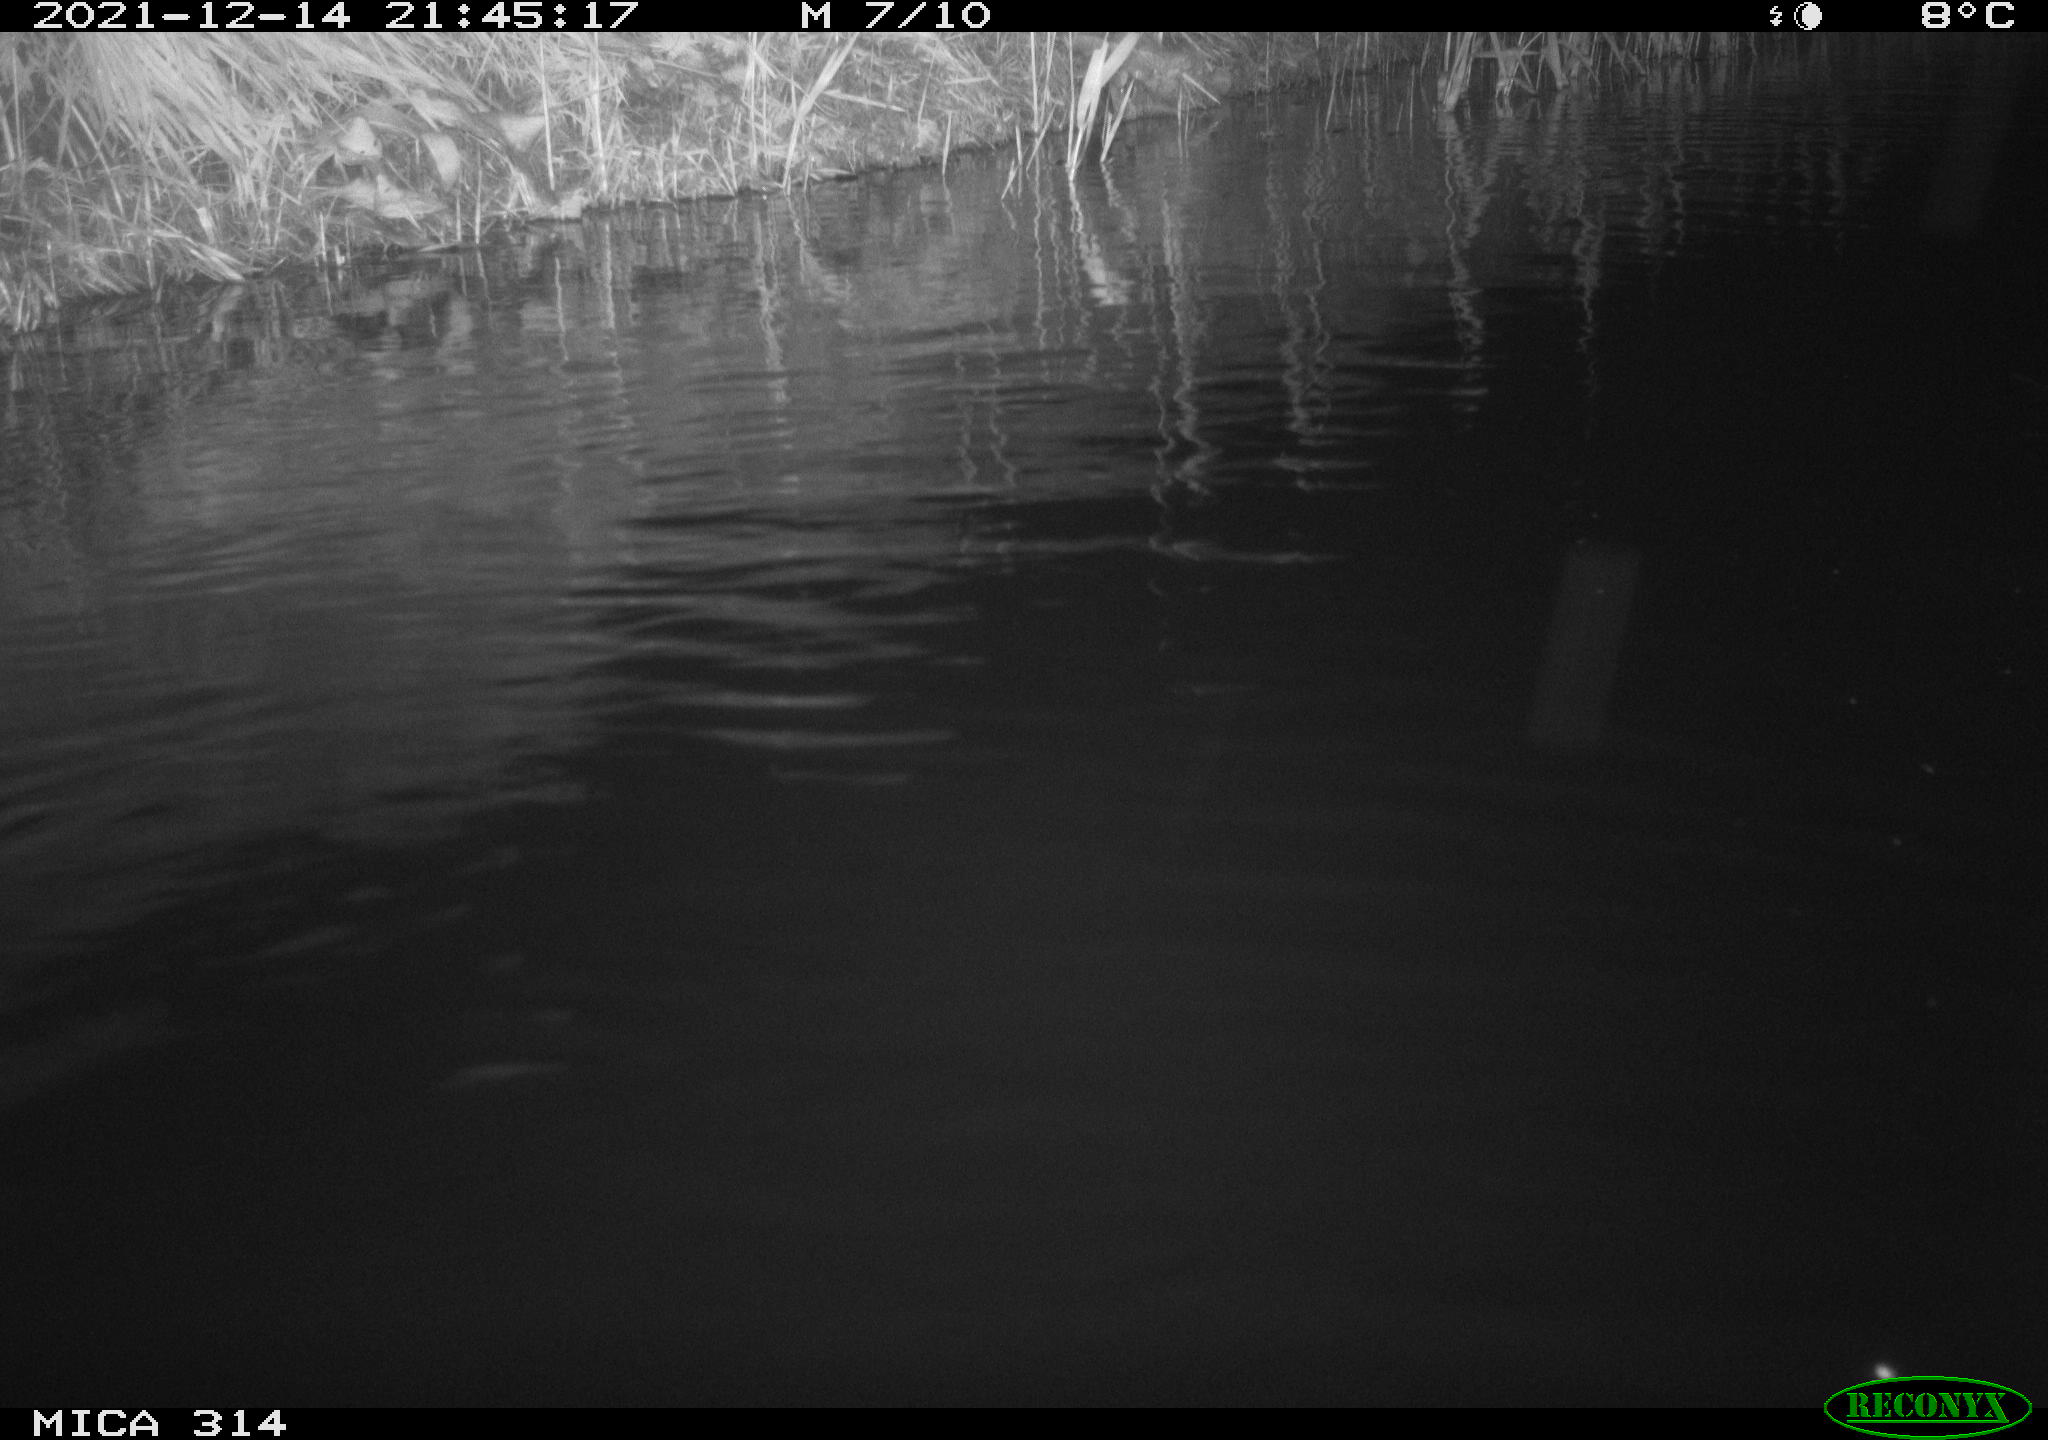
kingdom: Animalia
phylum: Chordata
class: Mammalia
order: Rodentia
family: Cricetidae
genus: Ondatra
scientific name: Ondatra zibethicus
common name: Muskrat
